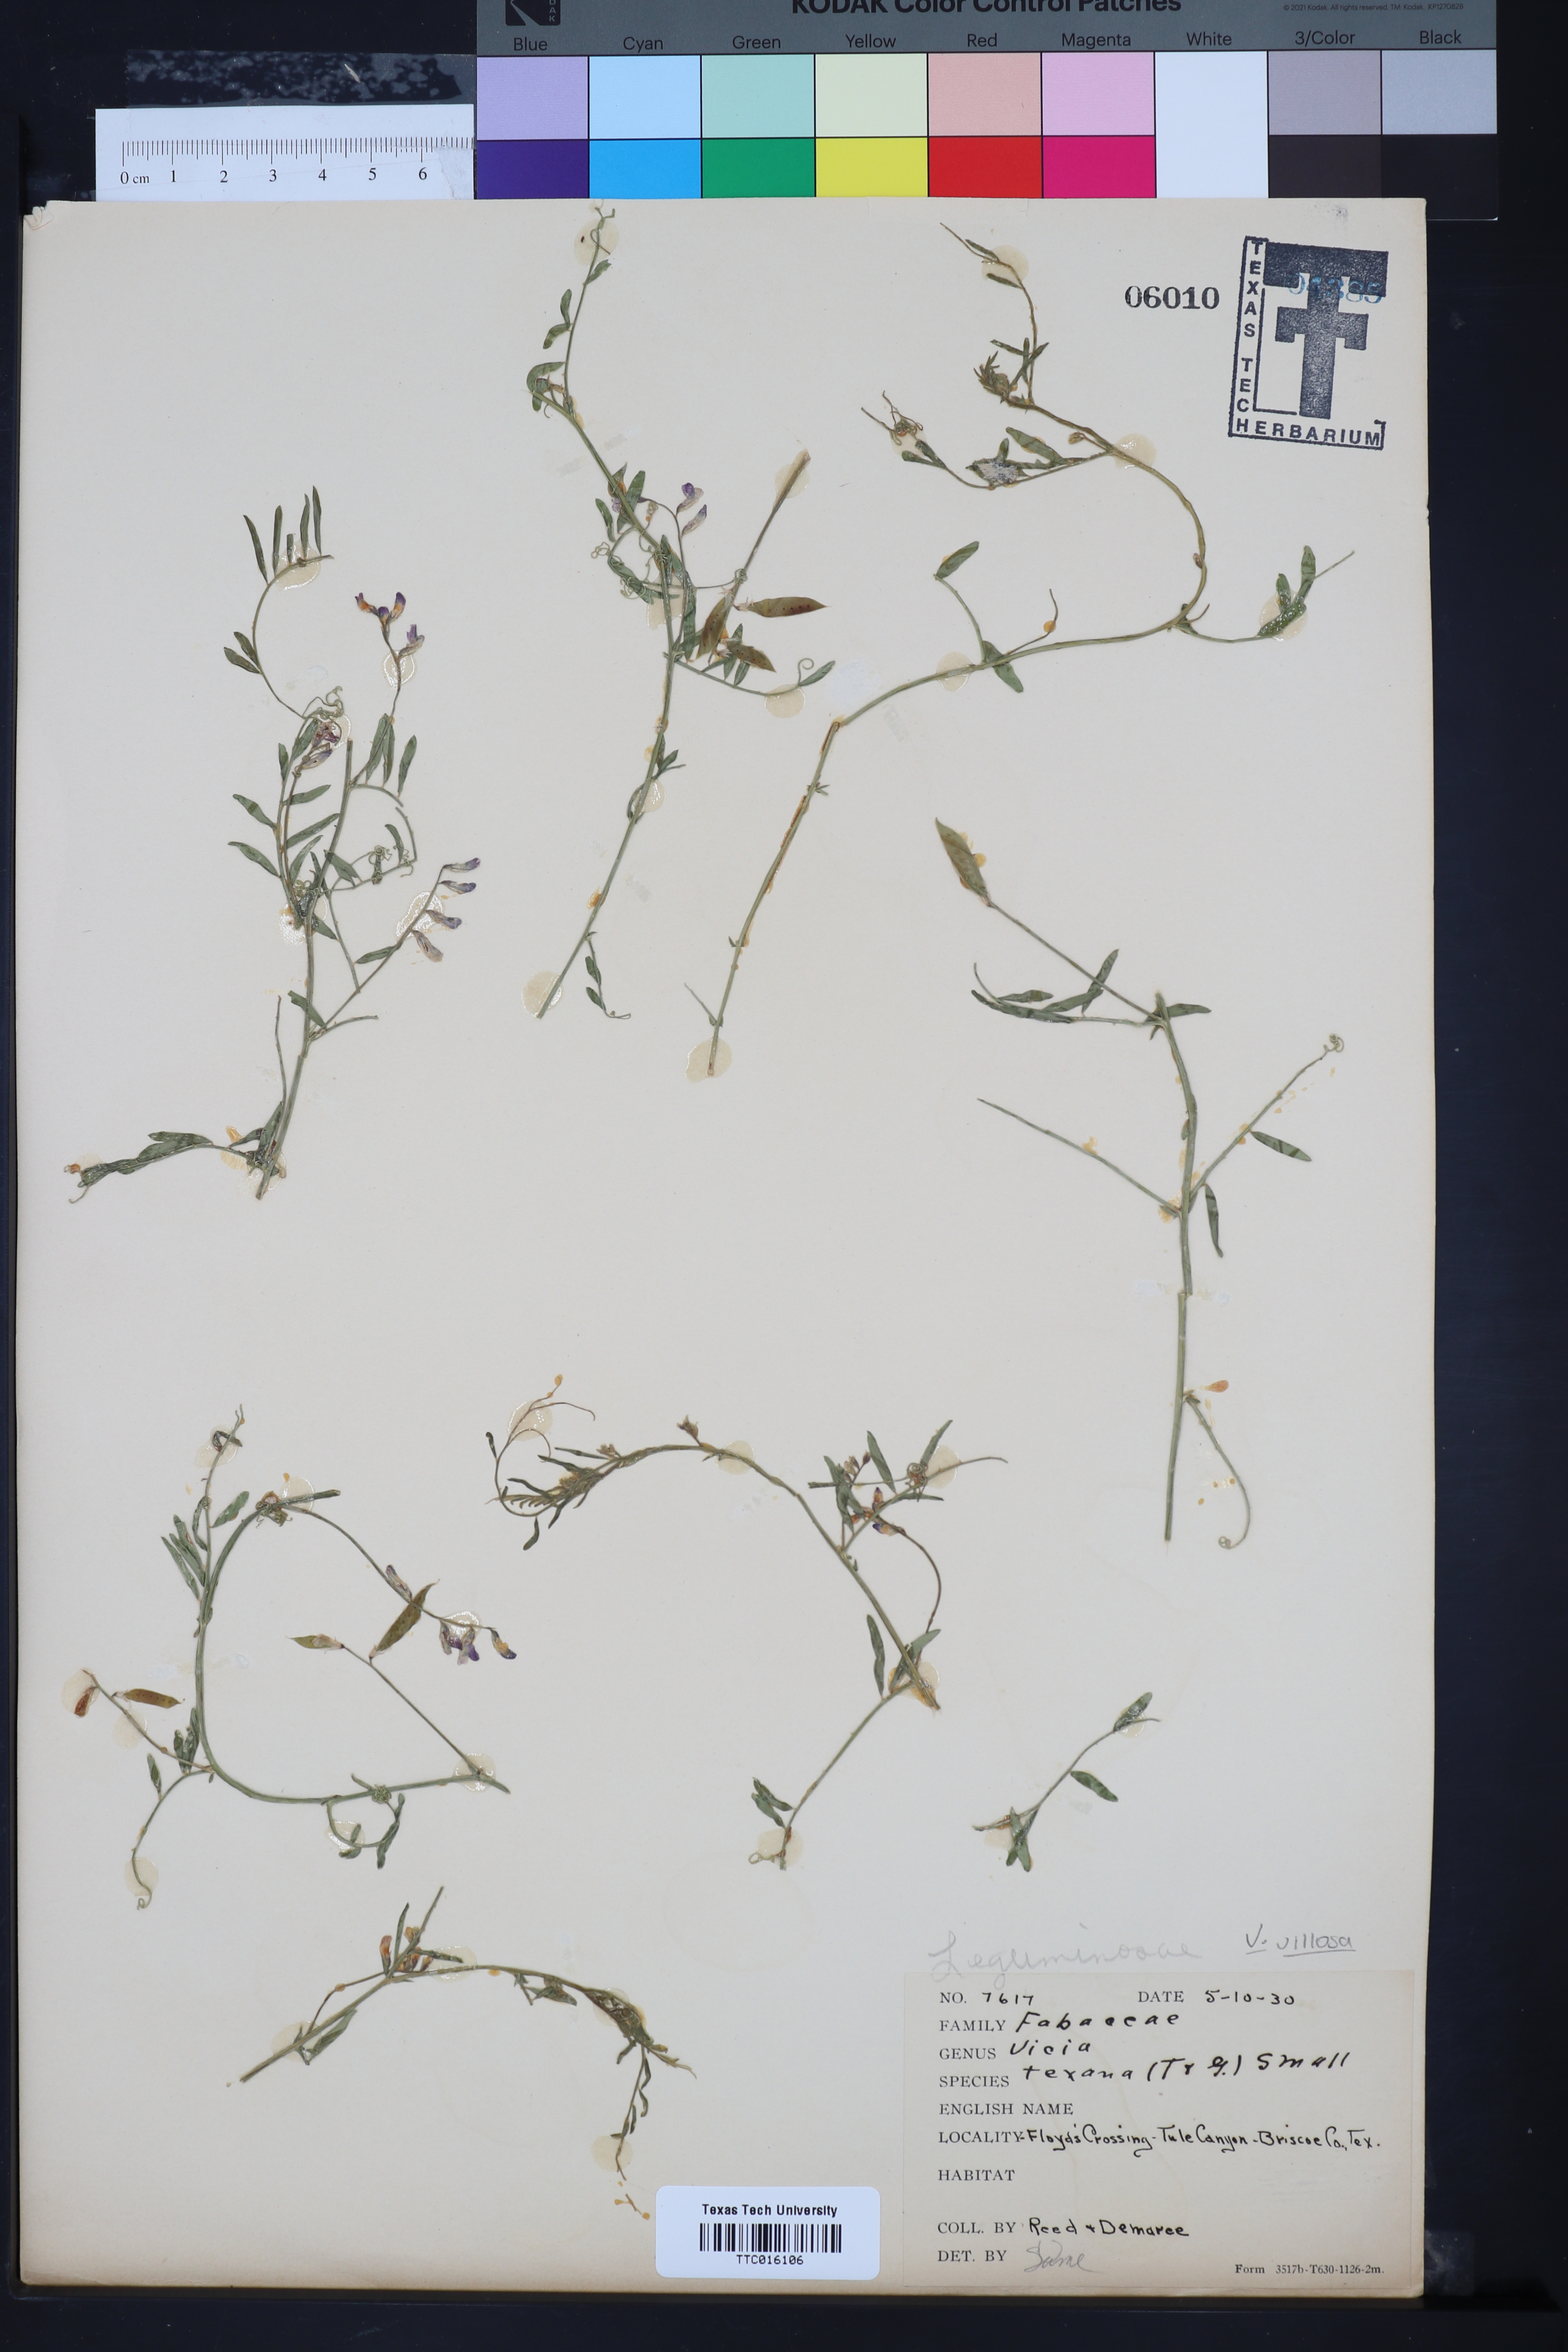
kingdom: Plantae
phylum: Tracheophyta
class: Magnoliopsida
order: Fabales
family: Fabaceae
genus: Vicia
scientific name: Vicia ludoviciana
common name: Louisiana vetch
